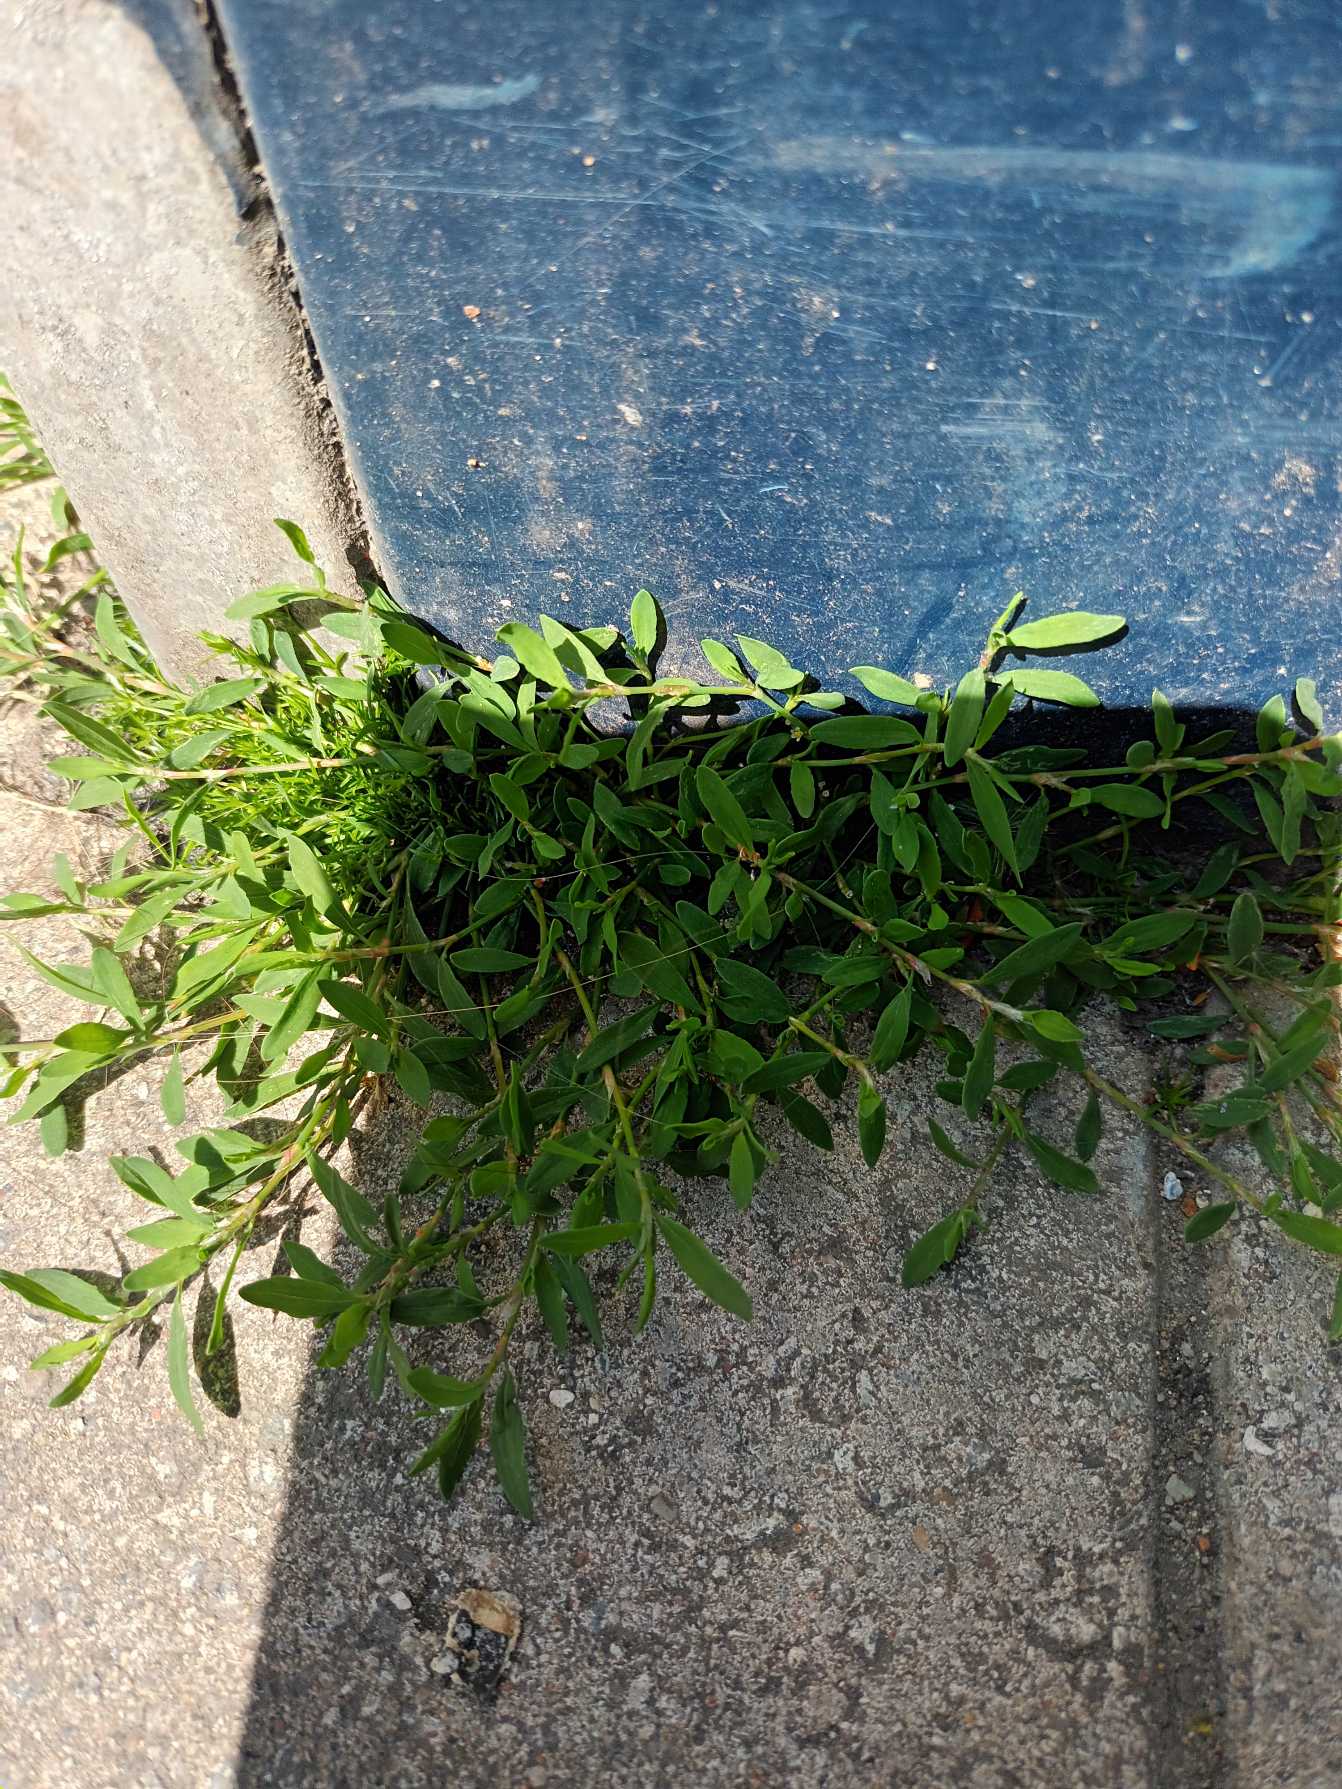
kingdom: Plantae
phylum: Tracheophyta
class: Magnoliopsida
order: Caryophyllales
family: Polygonaceae
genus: Polygonum
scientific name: Polygonum arenastrum
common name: Liggende vej-pileurt
